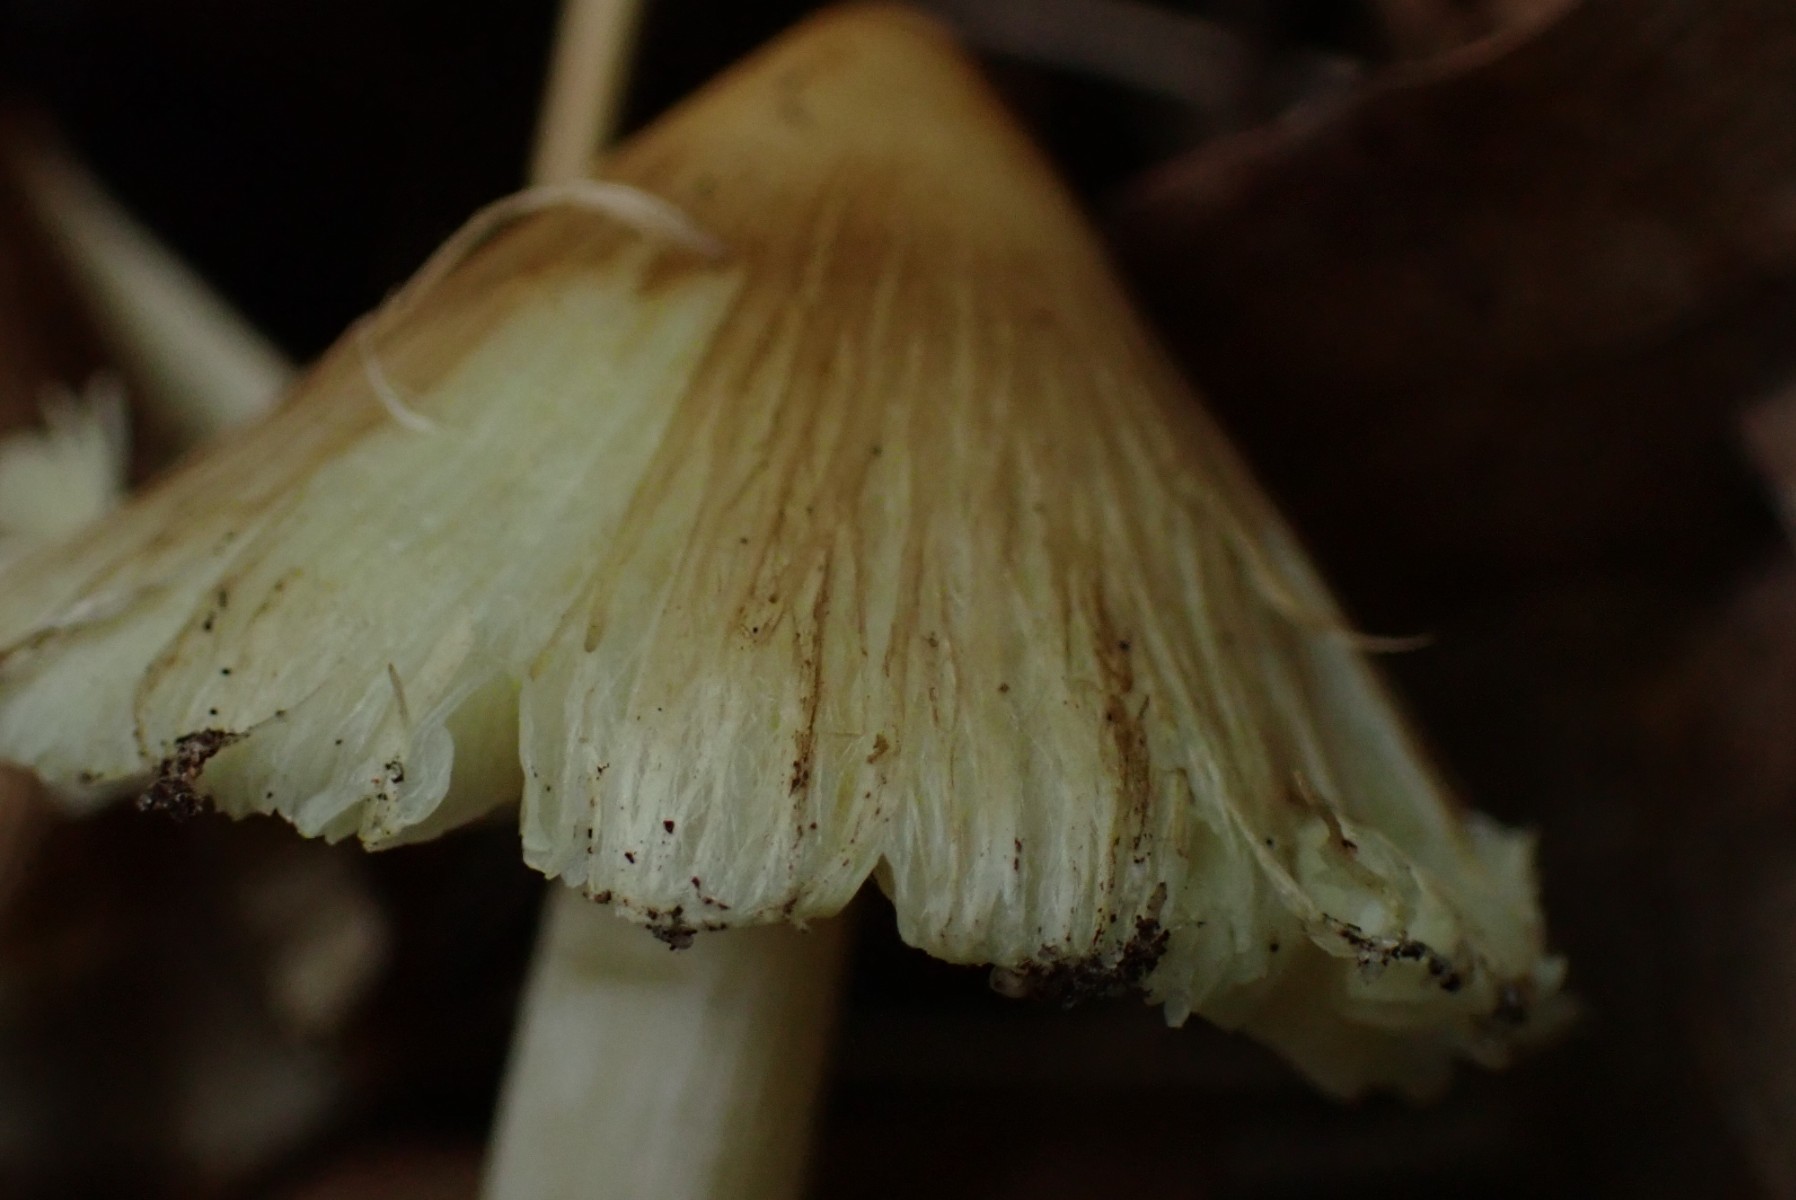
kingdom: Fungi
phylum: Basidiomycota
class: Agaricomycetes
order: Agaricales
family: Inocybaceae
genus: Pseudosperma
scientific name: Pseudosperma
